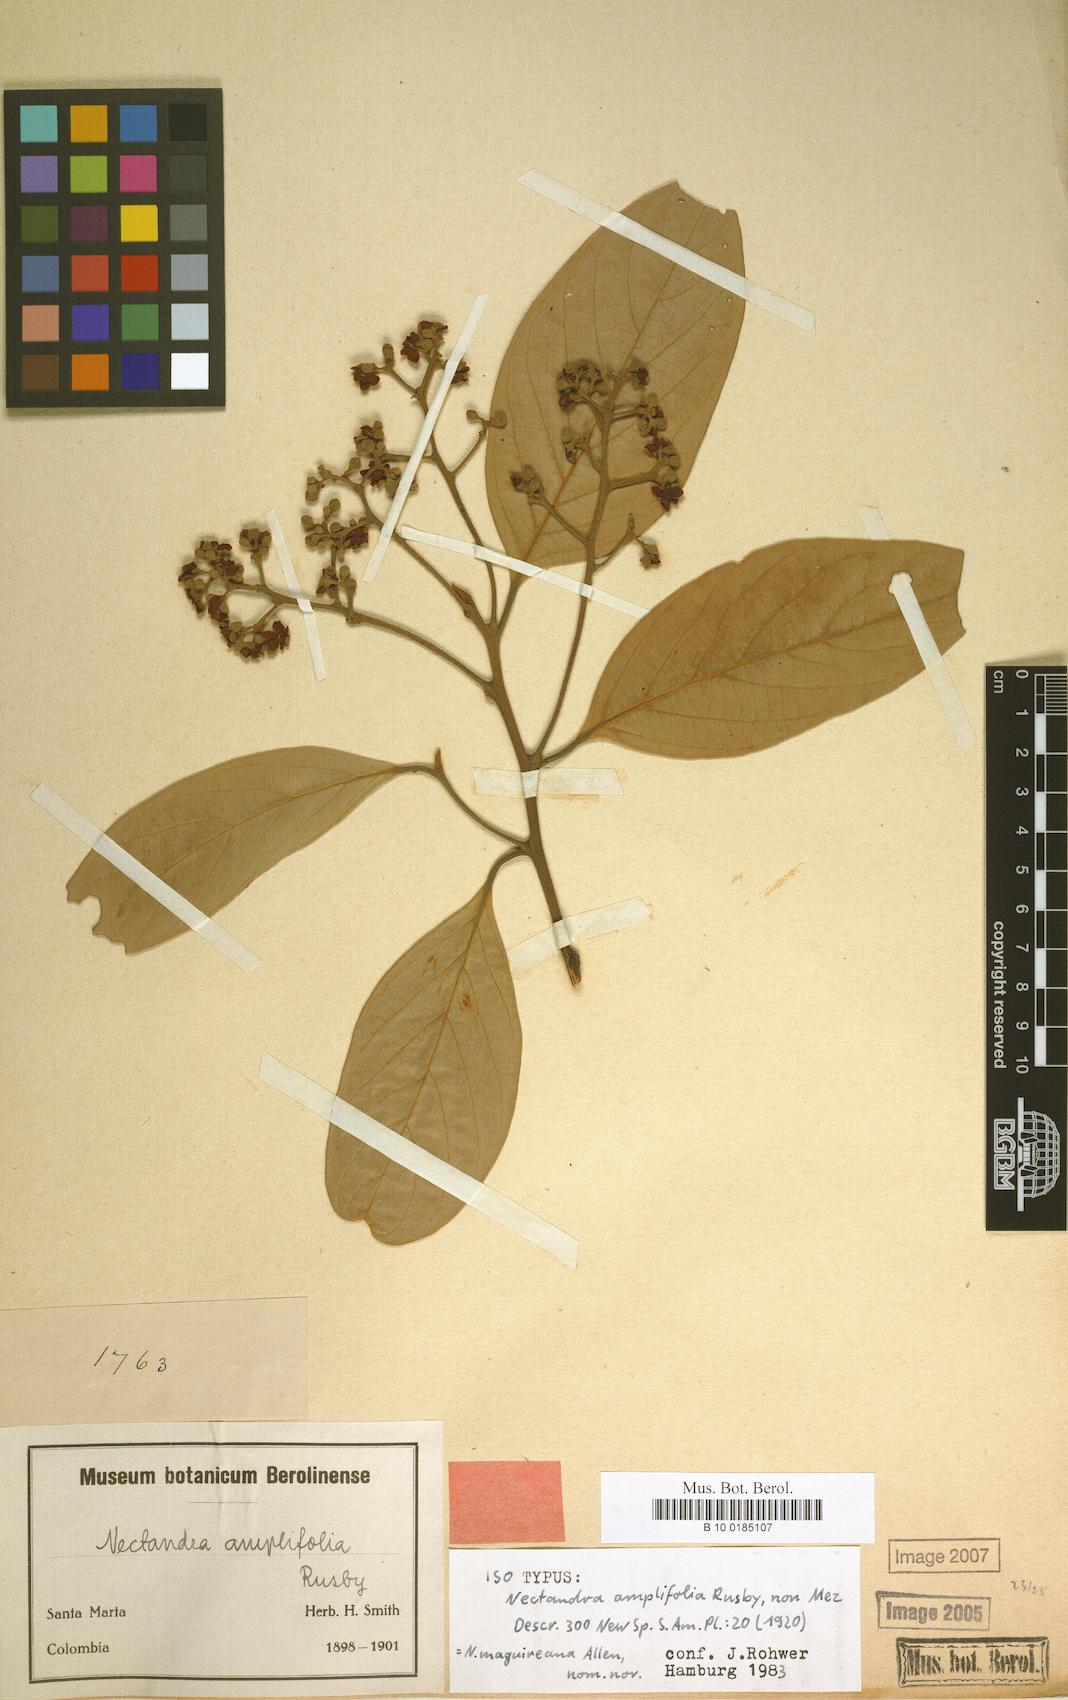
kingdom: Plantae
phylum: Tracheophyta
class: Magnoliopsida
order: Laurales
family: Lauraceae
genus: Nectandra
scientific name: Nectandra maguireana
